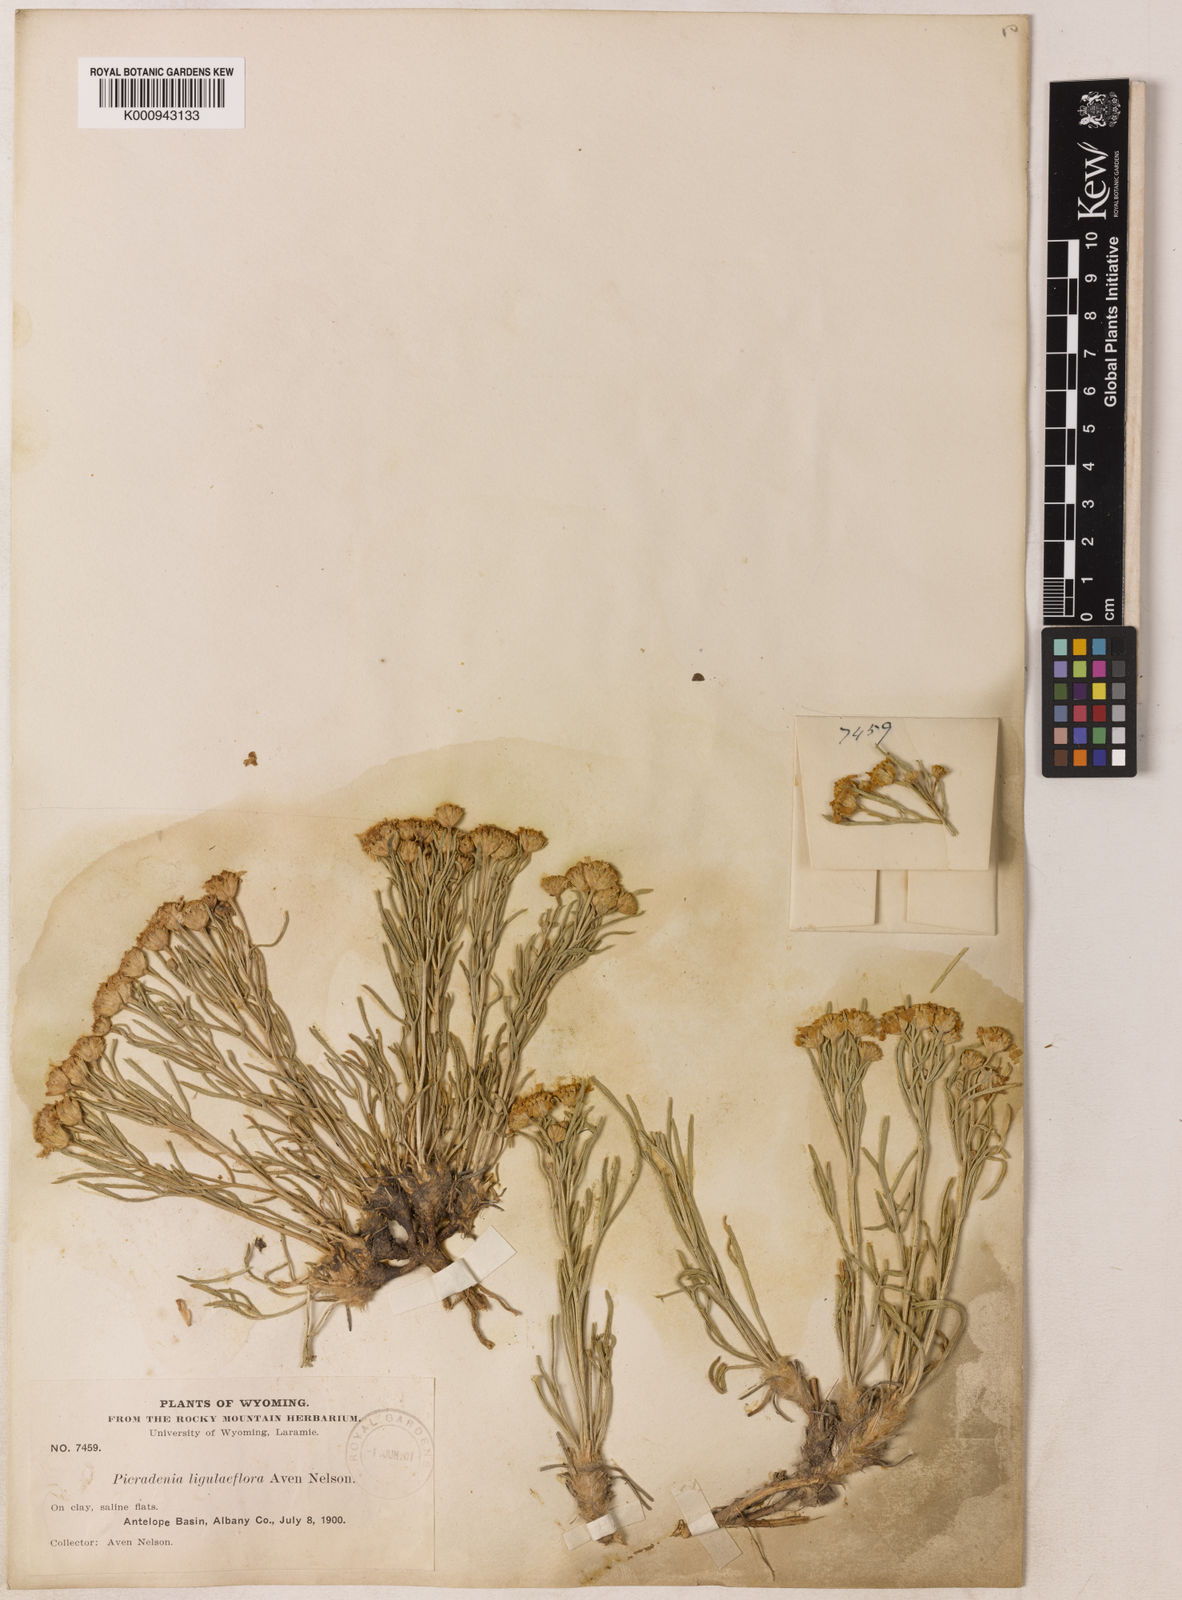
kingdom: Plantae
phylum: Tracheophyta
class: Magnoliopsida
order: Asterales
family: Asteraceae
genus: Hymenoxys
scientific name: Hymenoxys richardsonii
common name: Pingue rubberweed
